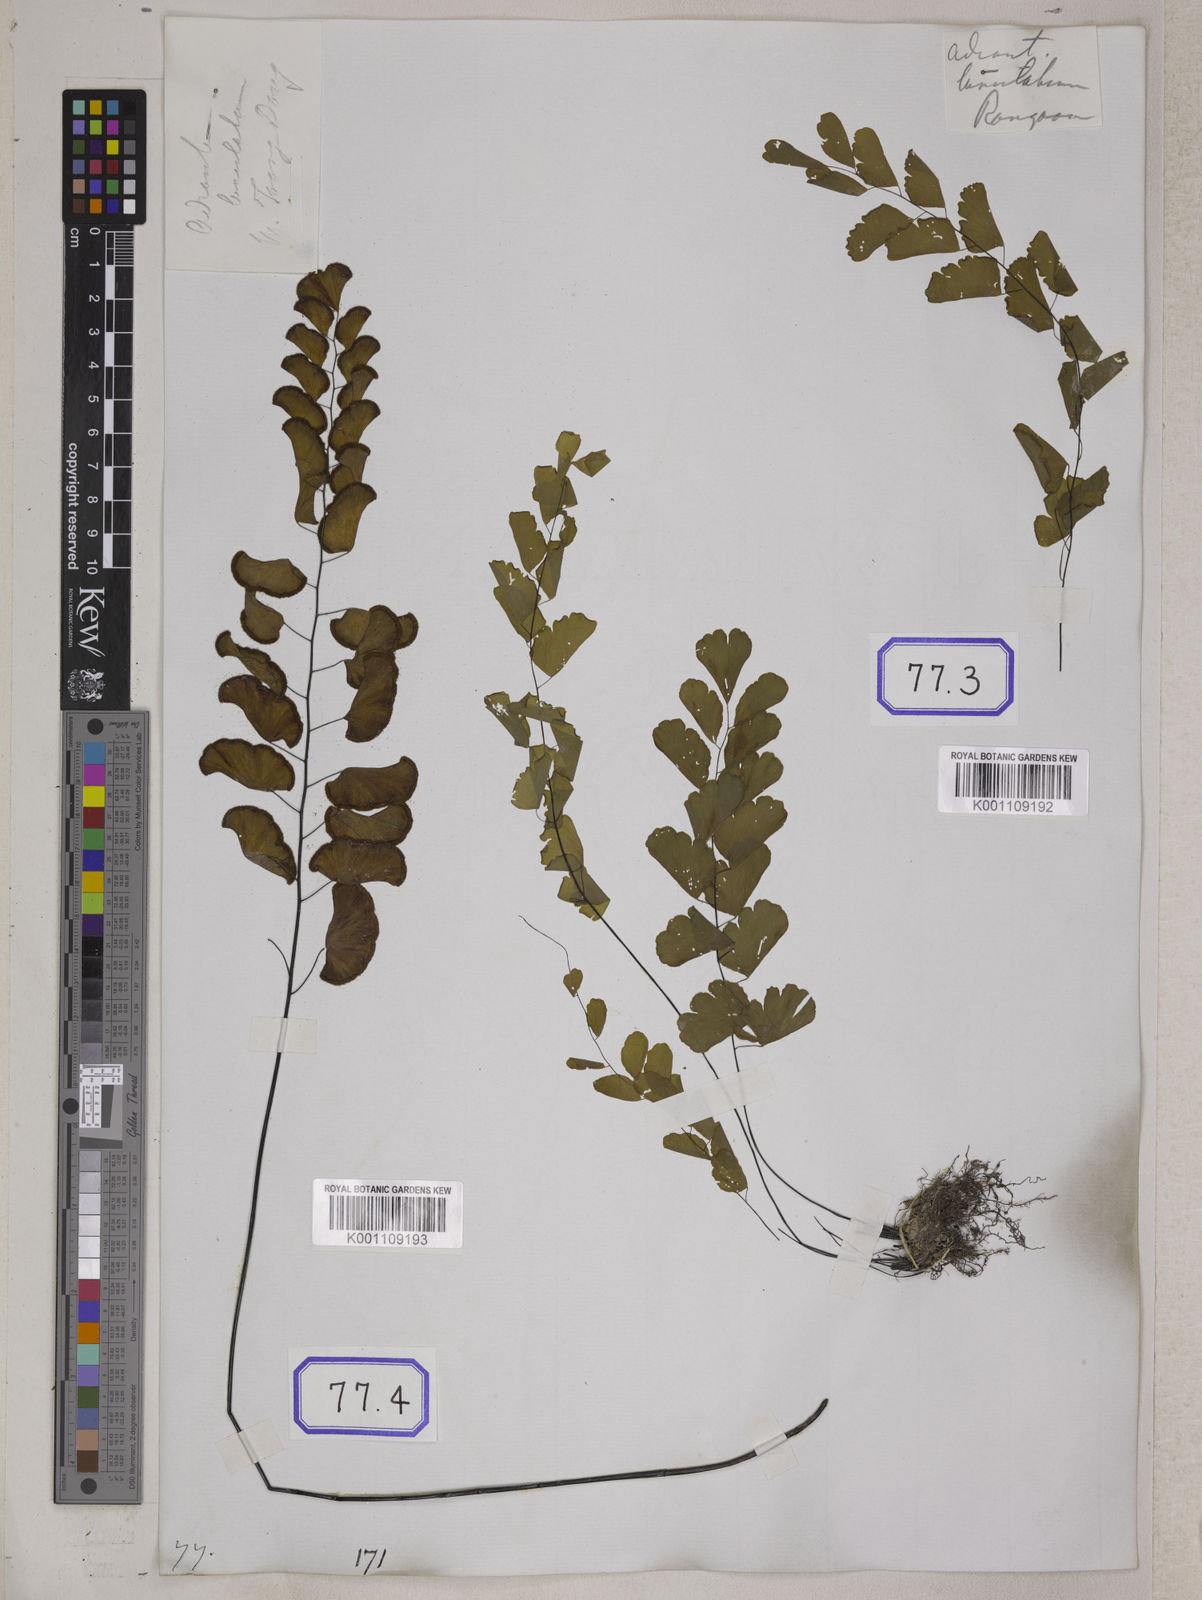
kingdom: Plantae
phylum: Tracheophyta
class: Polypodiopsida
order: Polypodiales
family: Pteridaceae
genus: Adiantum
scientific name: Adiantum philippense
